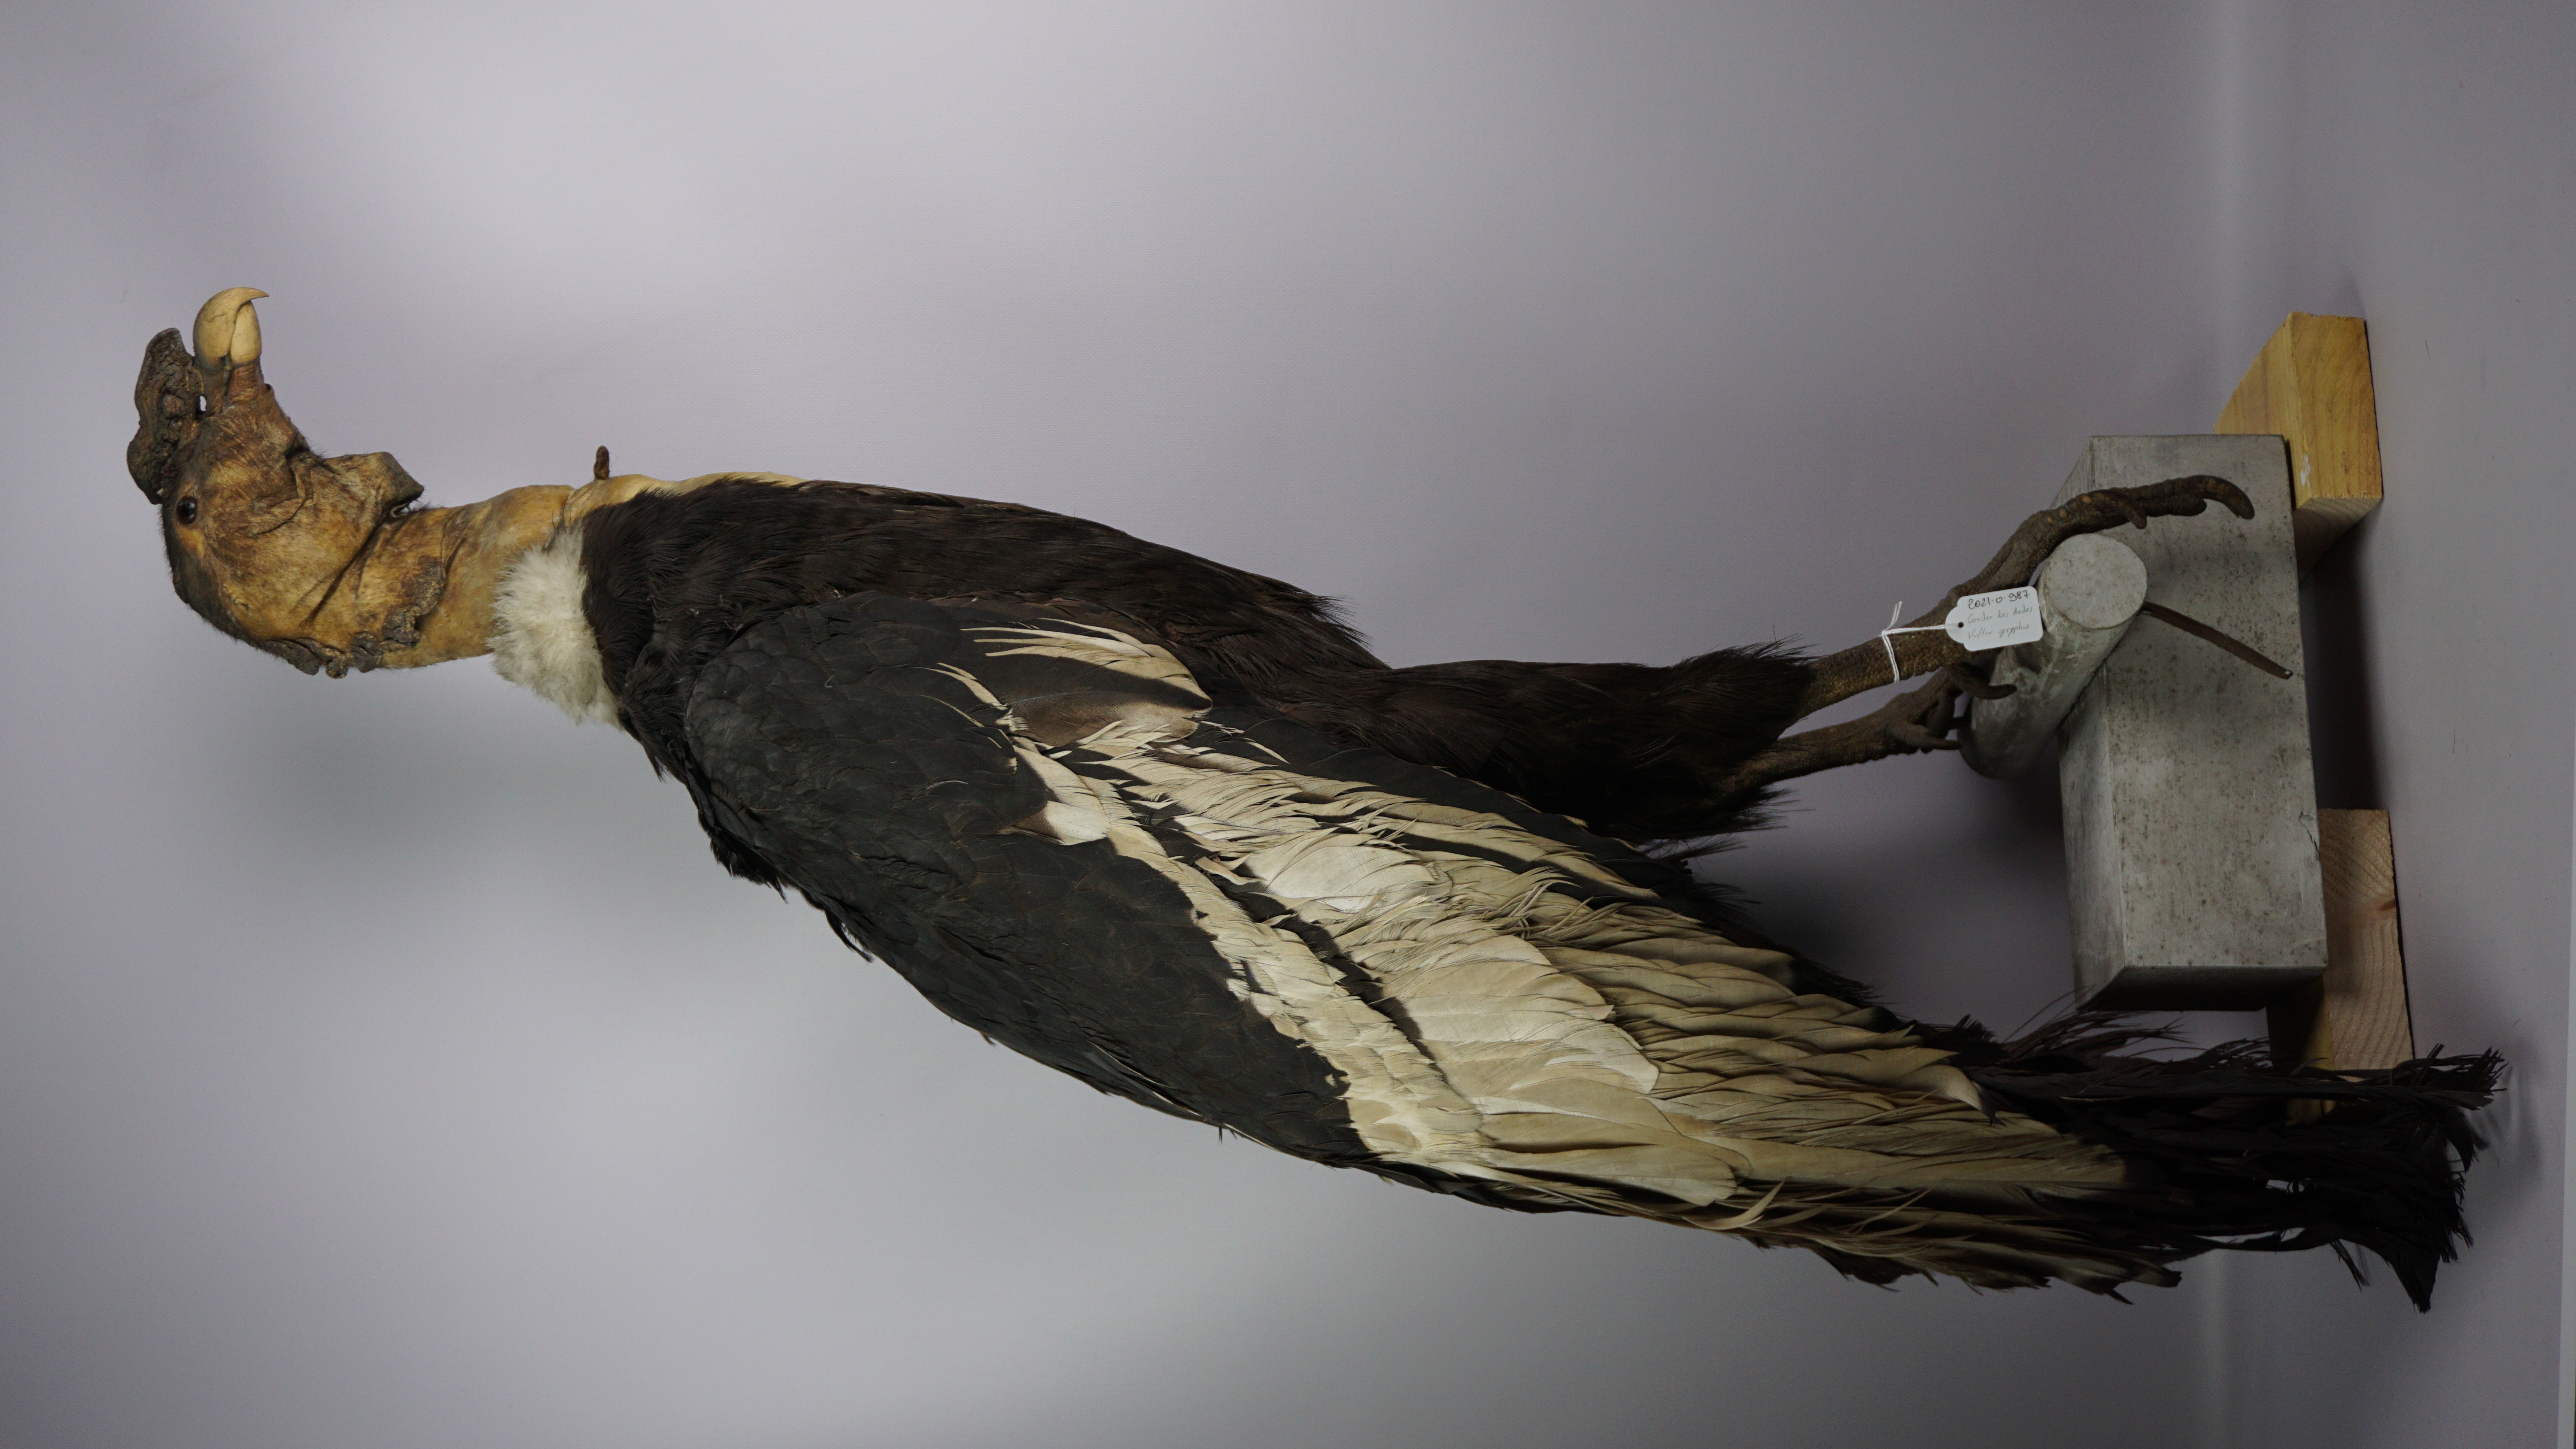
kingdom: Animalia
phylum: Chordata
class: Aves
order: Accipitriformes
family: Cathartidae
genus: Vultur
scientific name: Vultur gryphus
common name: Andean condor
